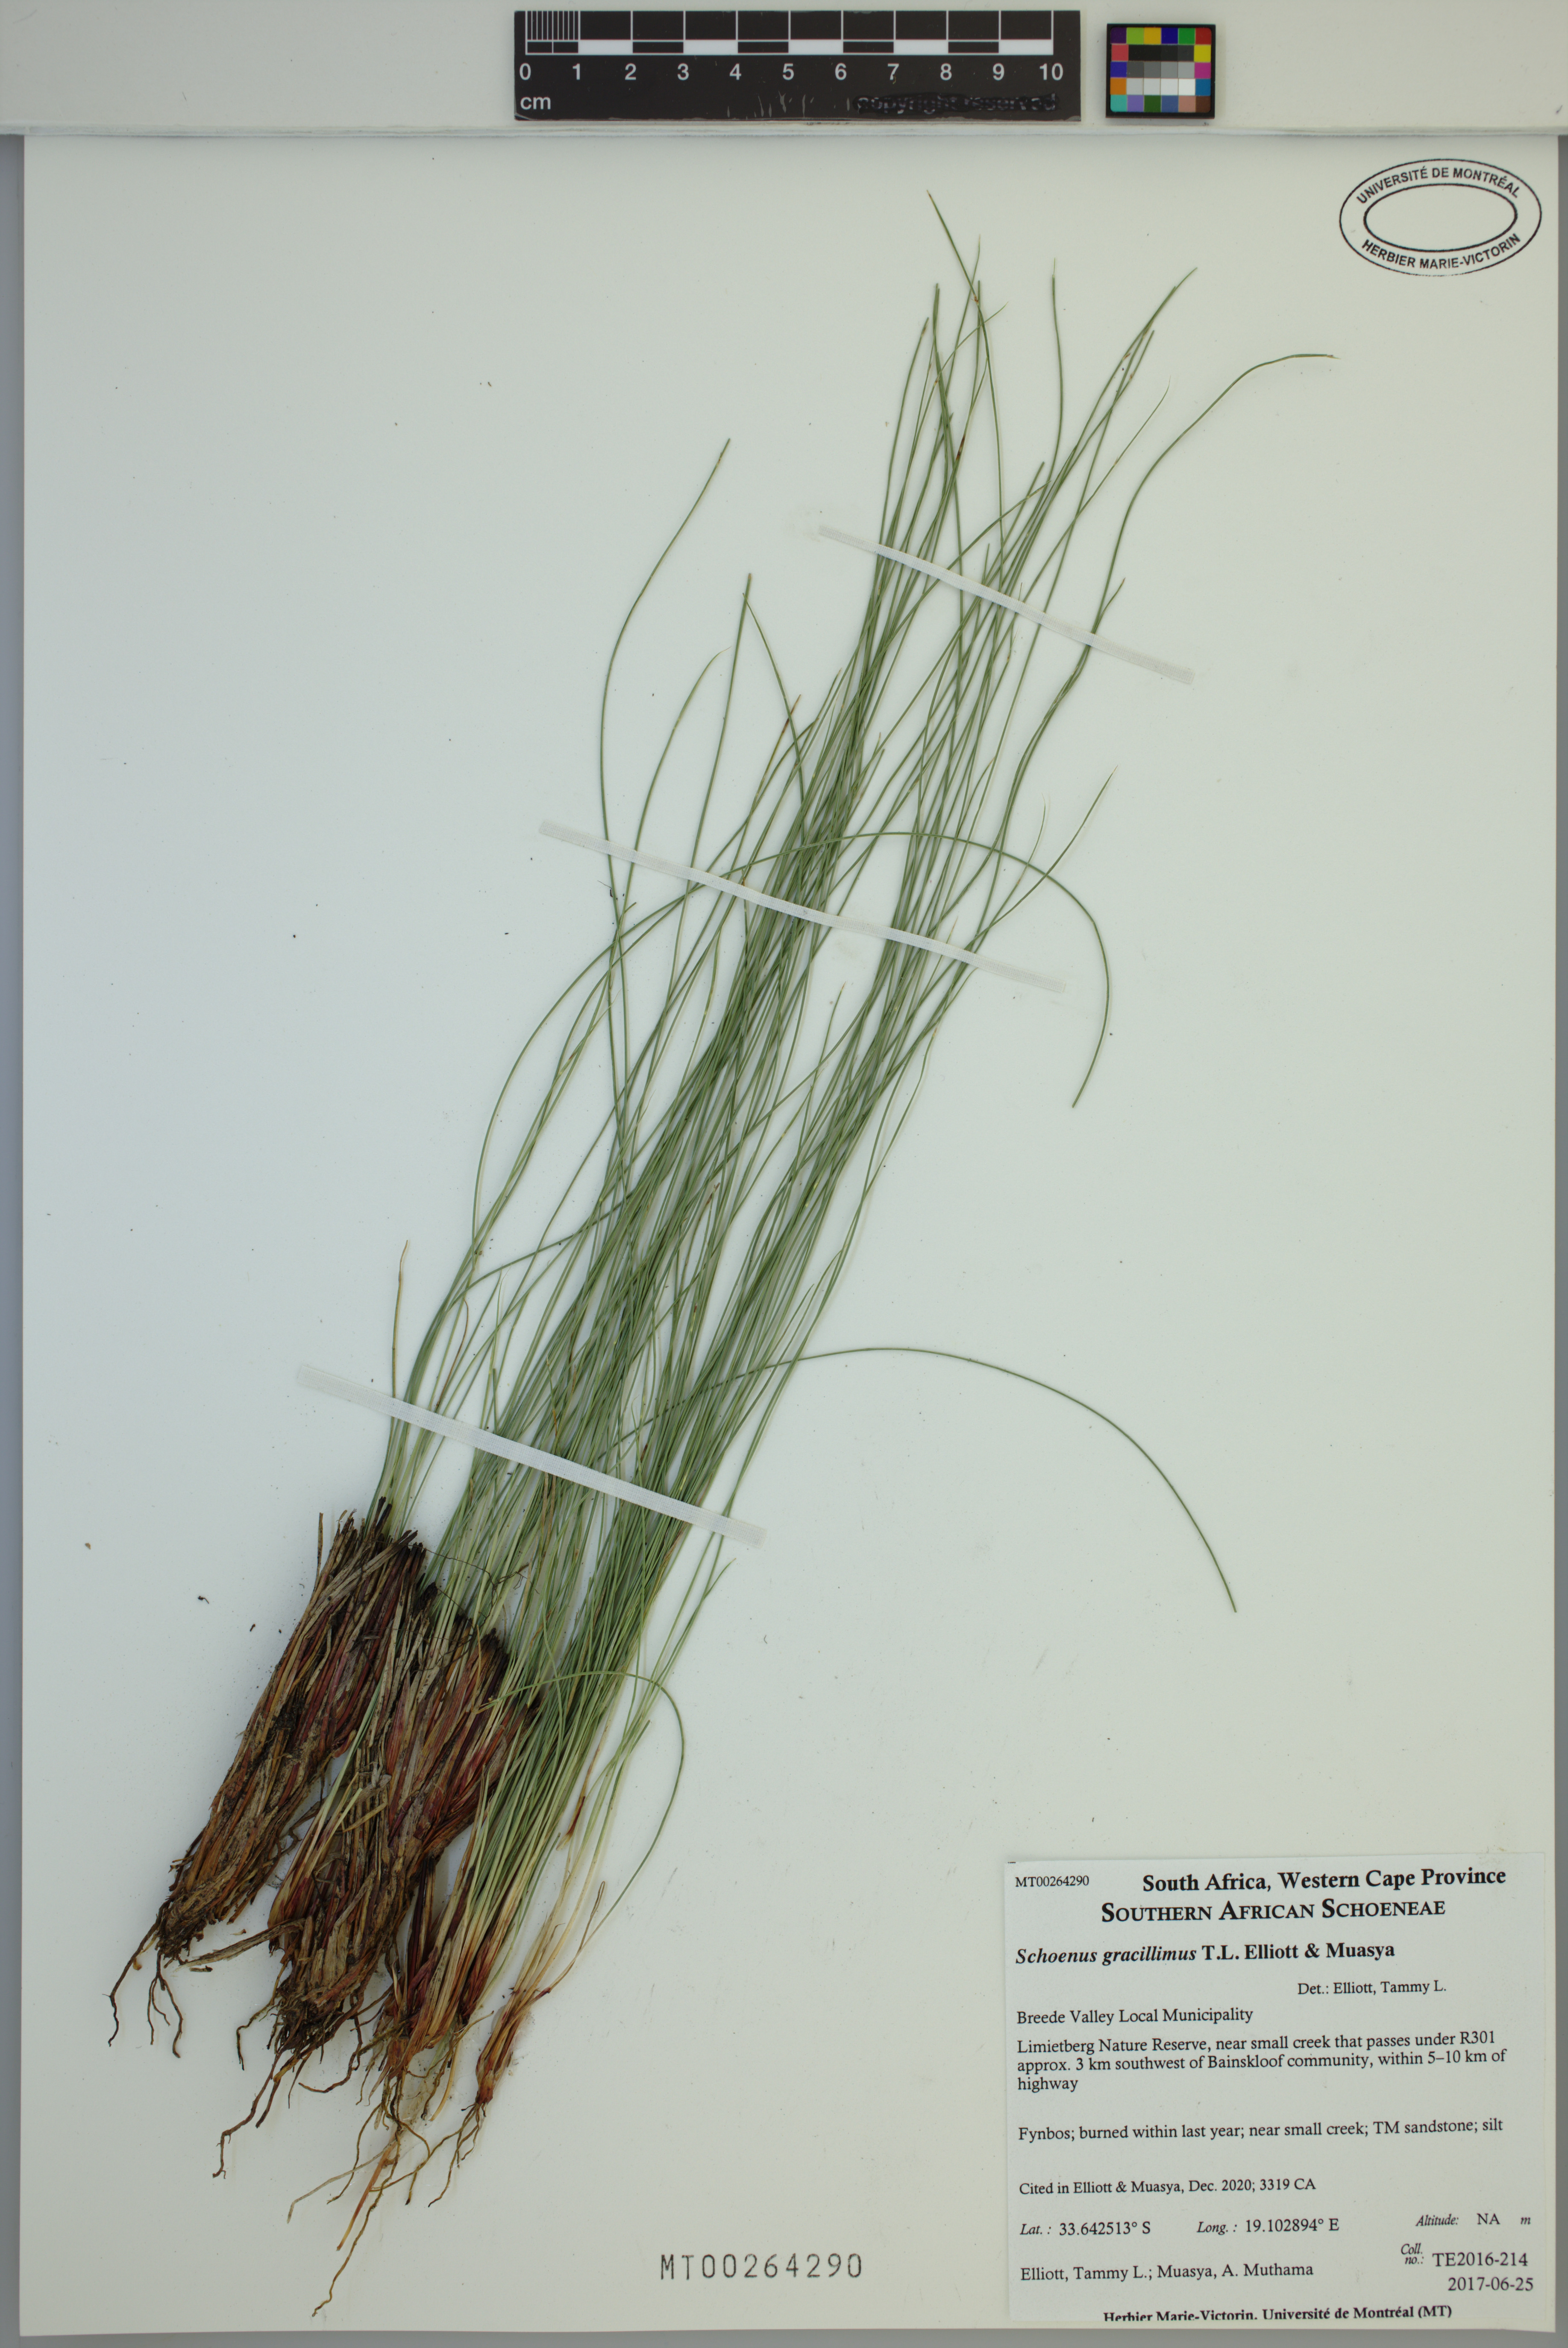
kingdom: Plantae
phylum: Tracheophyta
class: Liliopsida
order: Poales
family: Cyperaceae
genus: Schoenus
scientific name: Schoenus gracillimus
